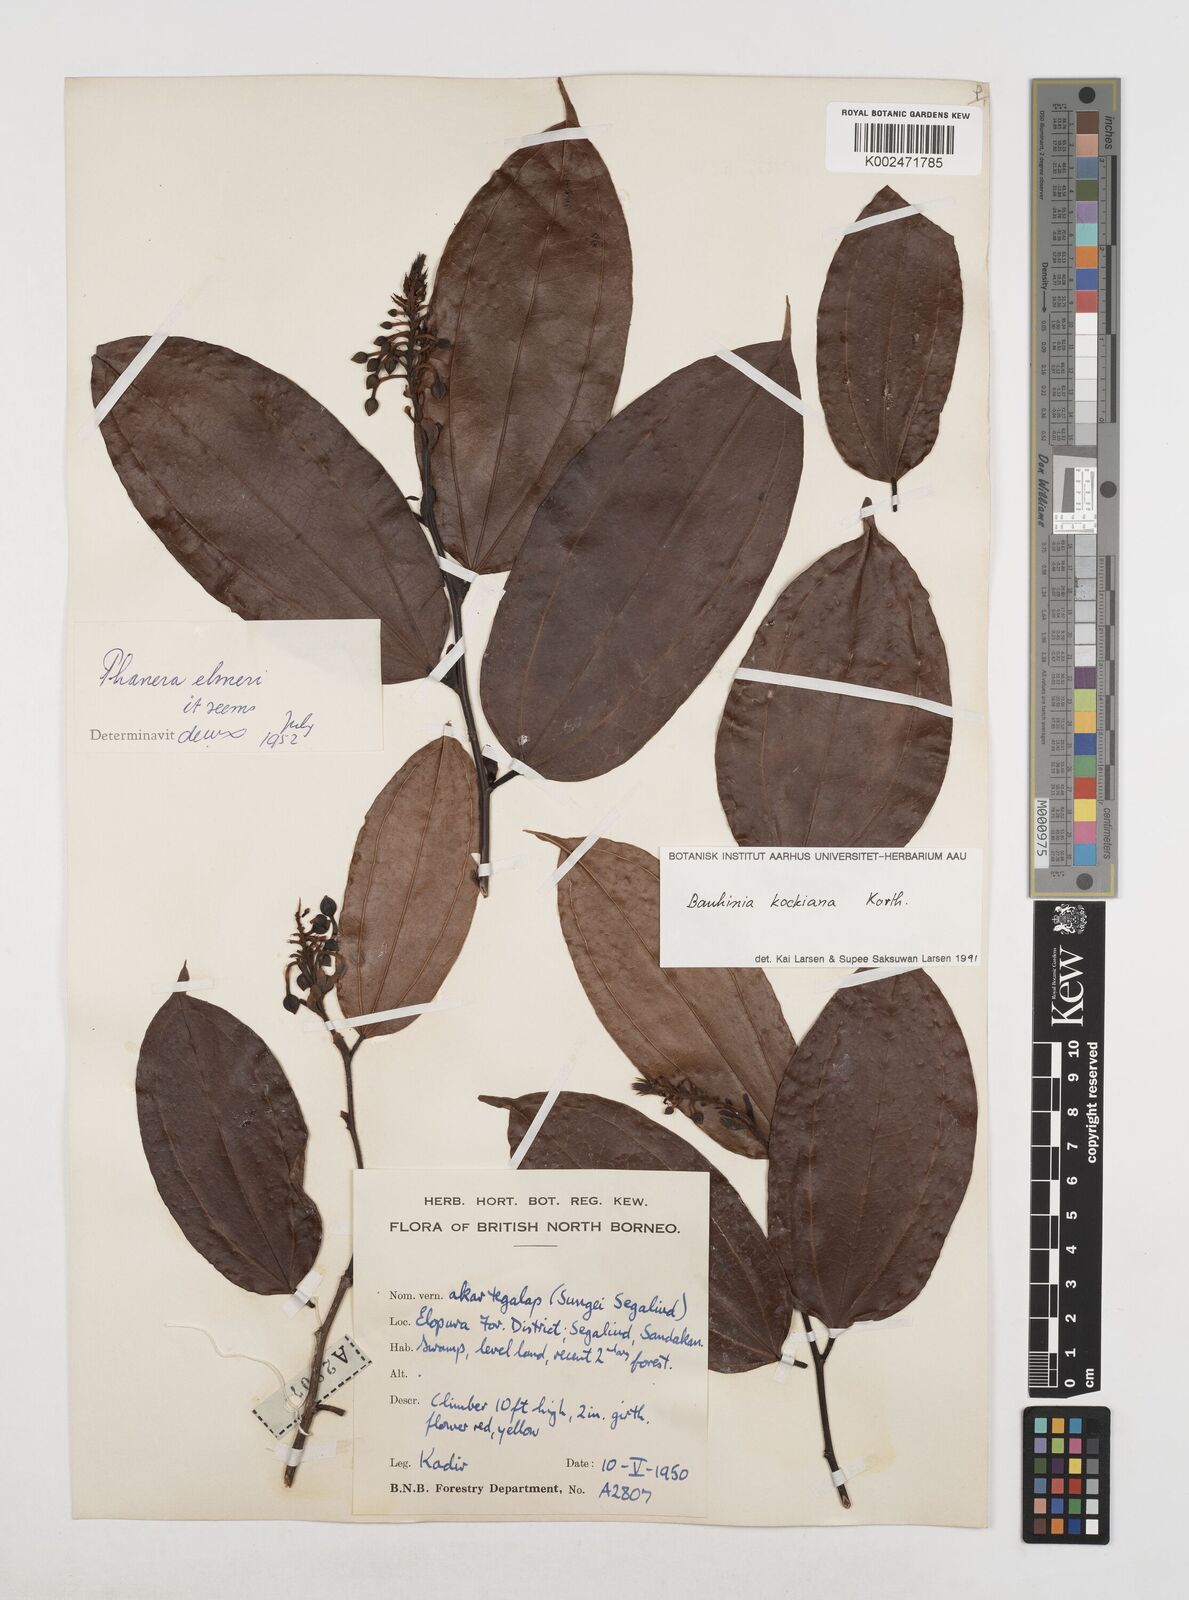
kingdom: Plantae
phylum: Tracheophyta
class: Magnoliopsida
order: Fabales
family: Fabaceae
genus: Phanera
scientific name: Phanera kockiana
